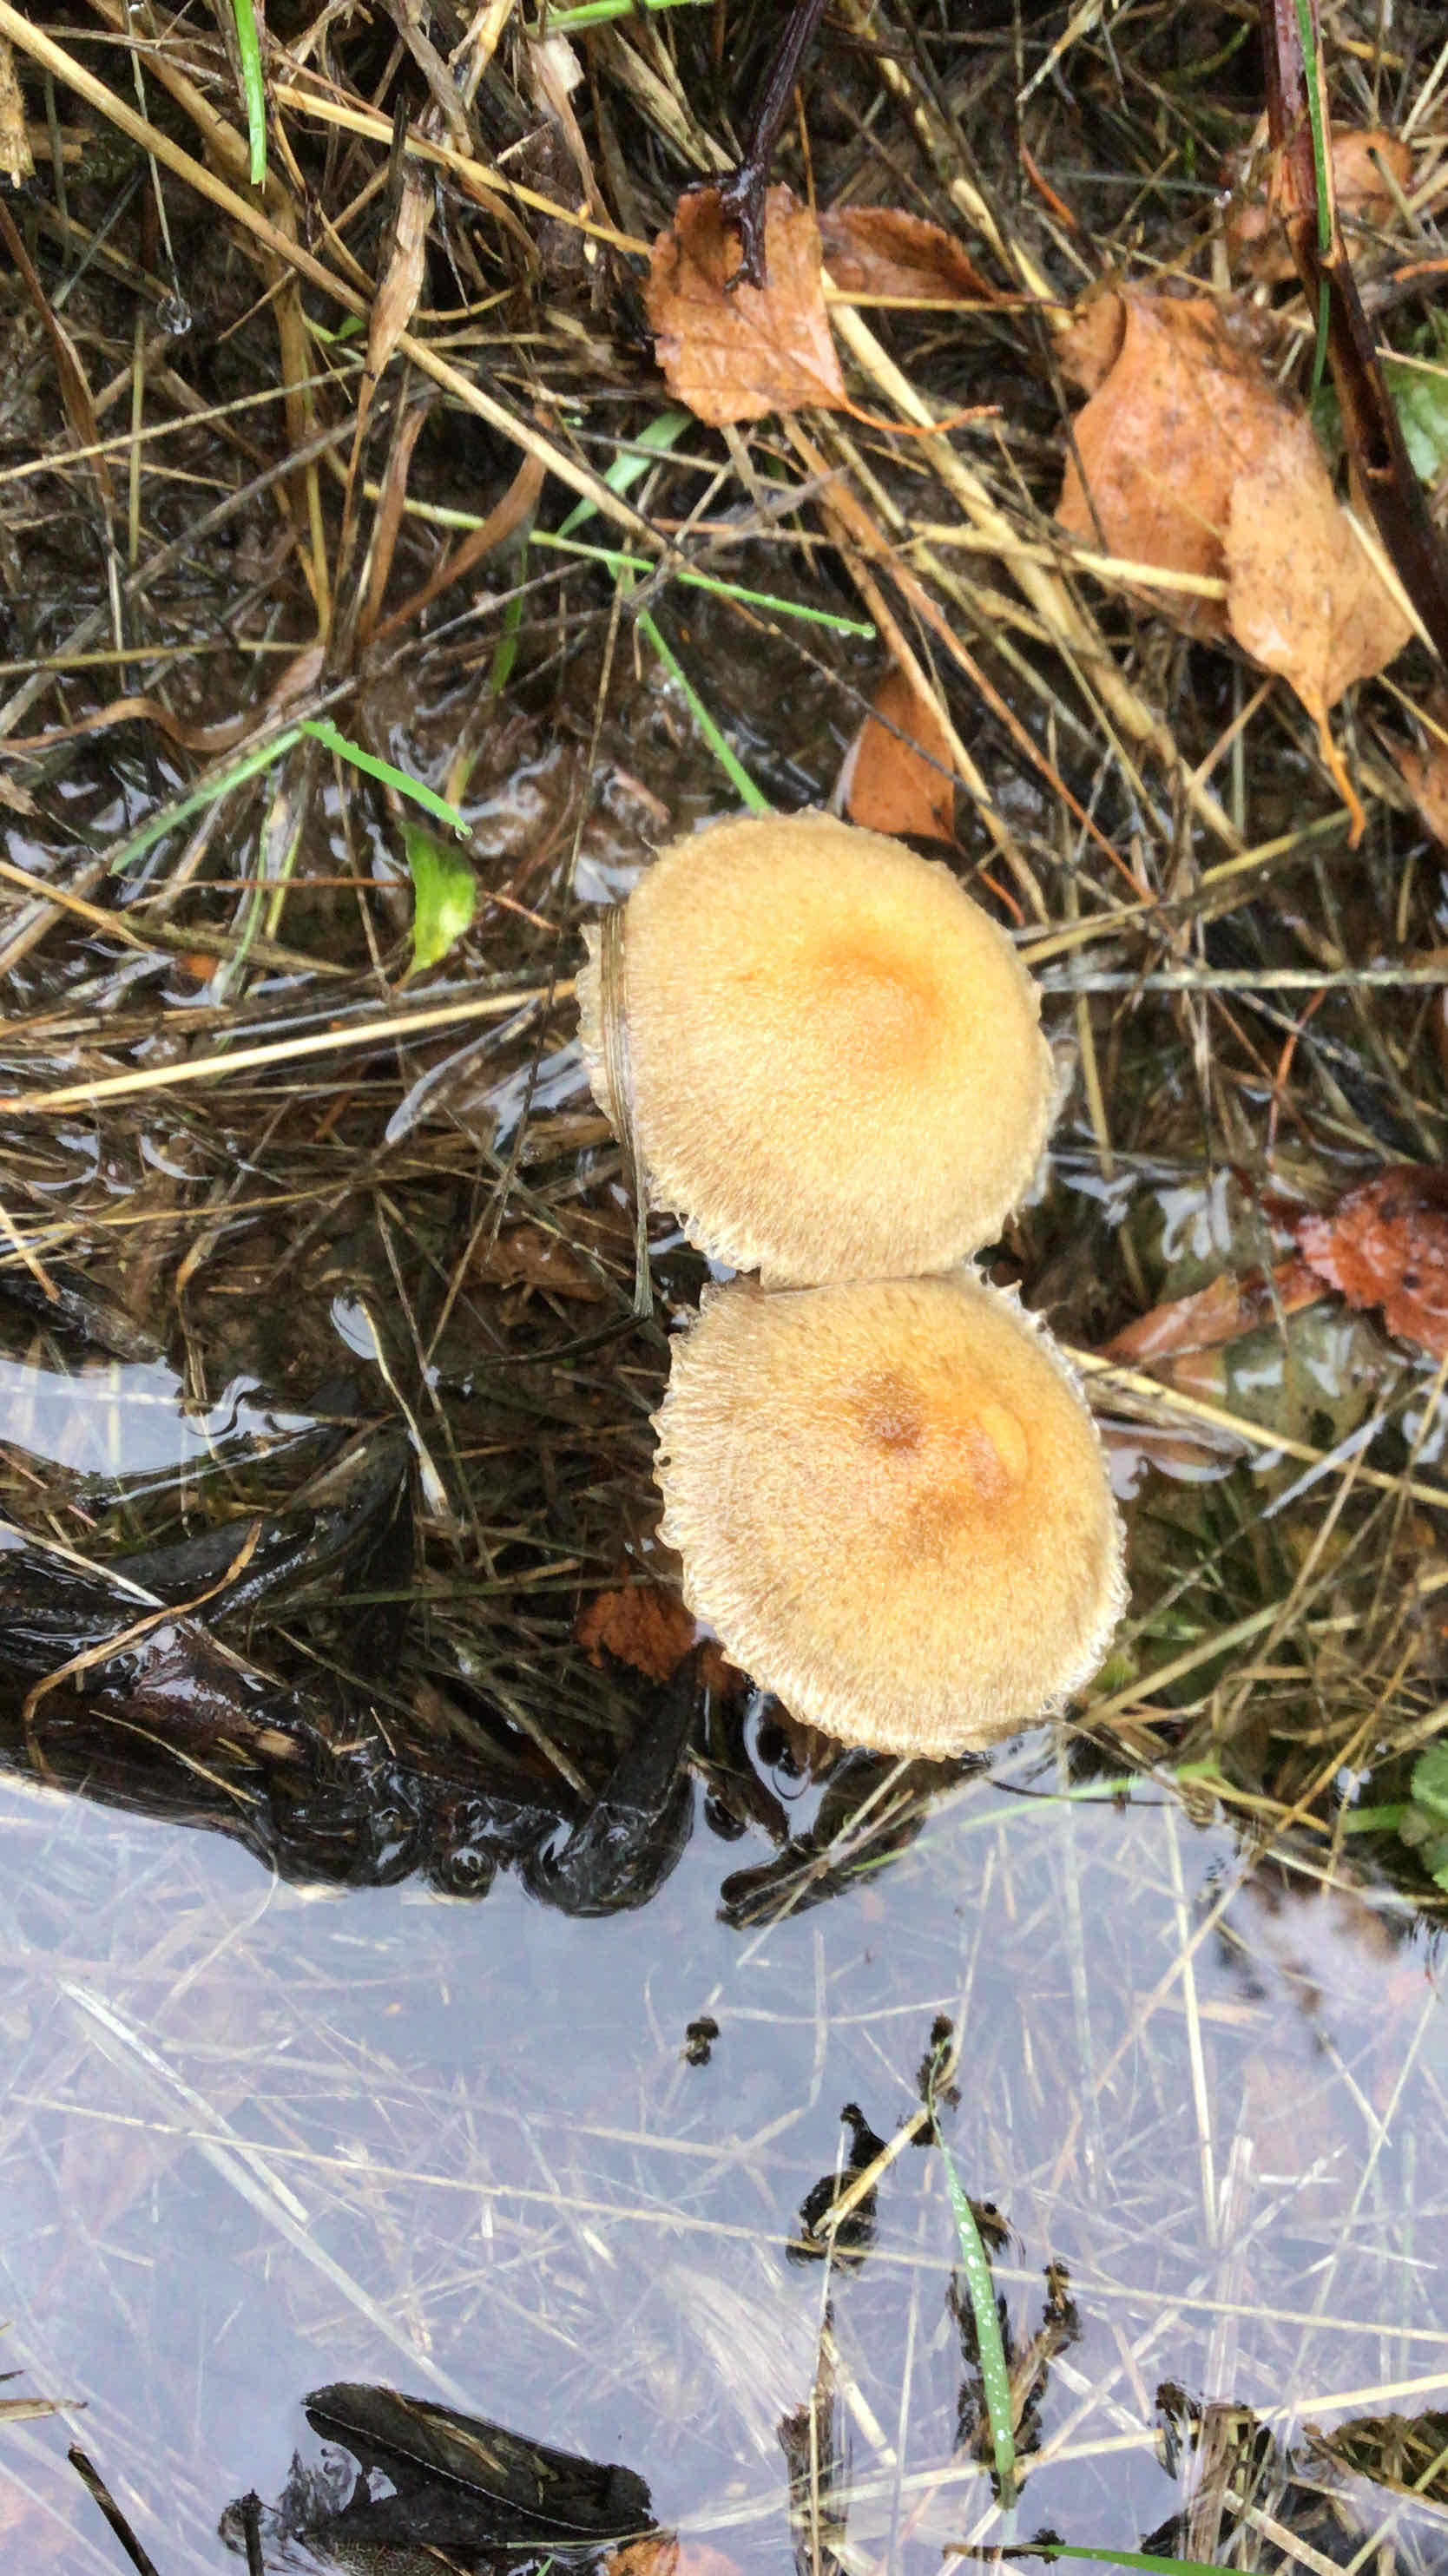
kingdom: Fungi
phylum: Basidiomycota
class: Agaricomycetes
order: Agaricales
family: Psathyrellaceae
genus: Lacrymaria
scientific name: Lacrymaria lacrymabunda
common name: grædende mørkhat
